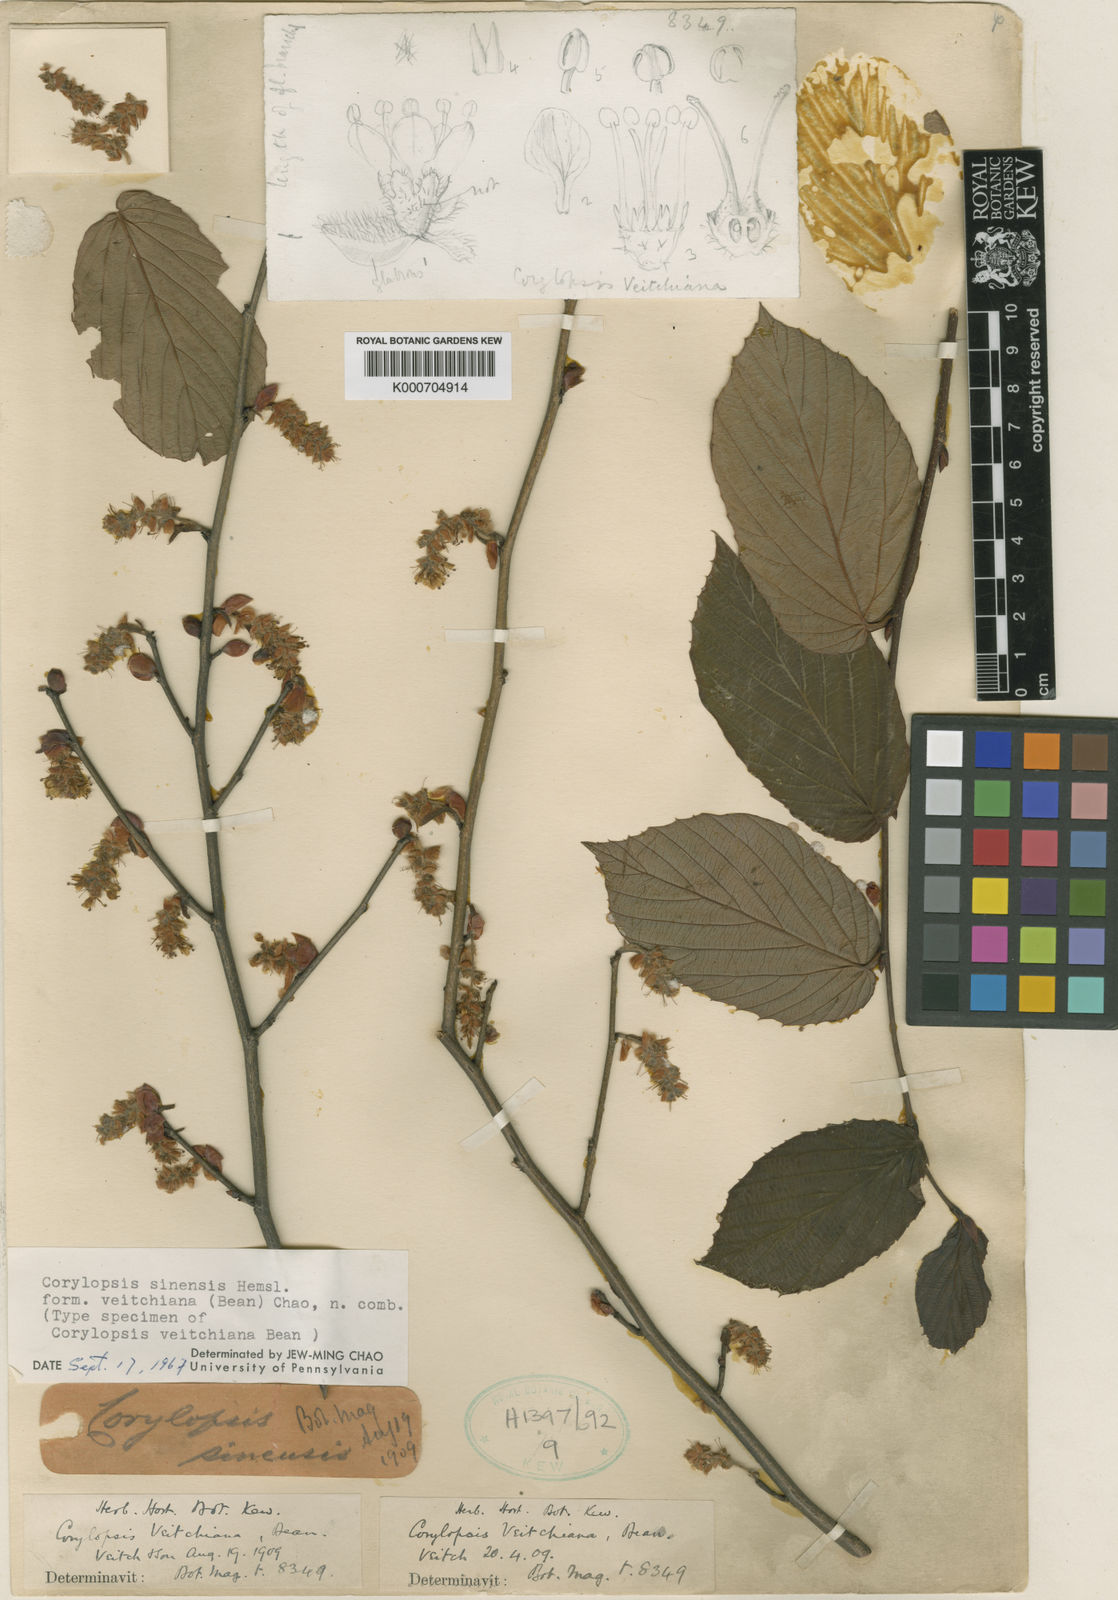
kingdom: Plantae
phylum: Tracheophyta
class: Magnoliopsida
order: Saxifragales
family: Hamamelidaceae
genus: Corylopsis
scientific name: Corylopsis sinensis
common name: Winter hazel
